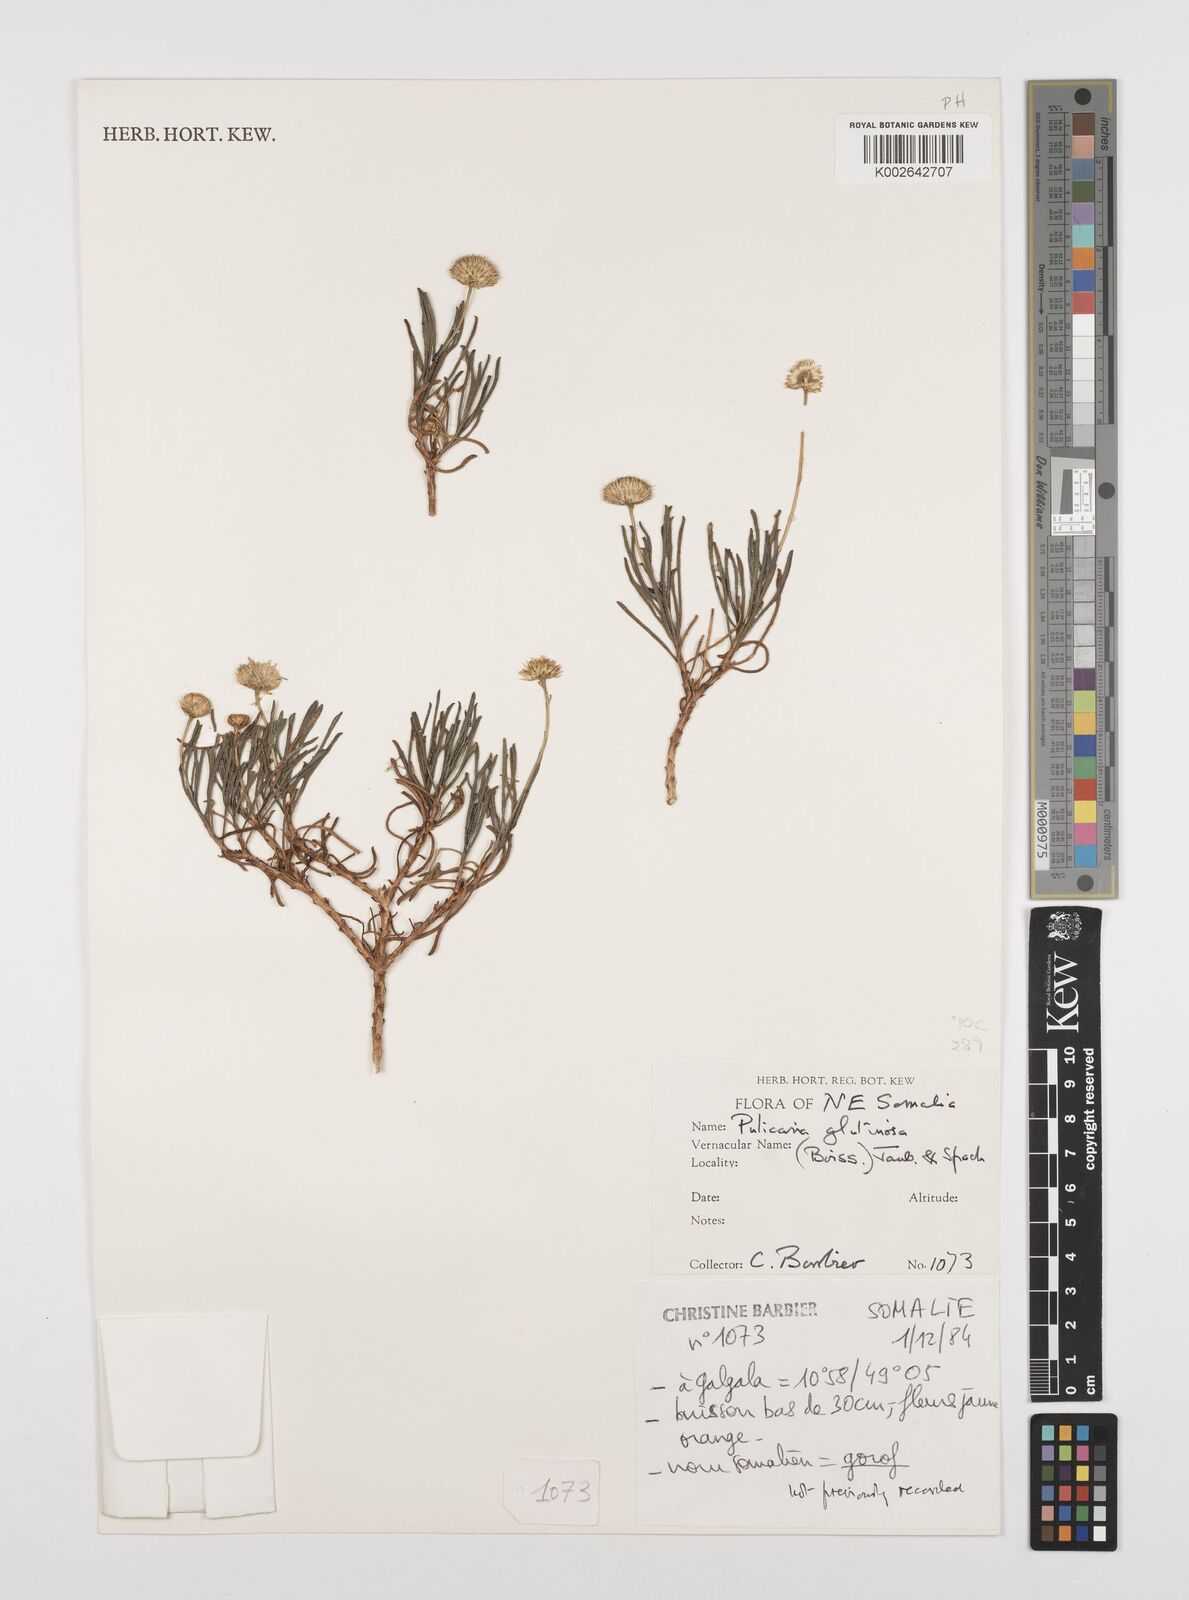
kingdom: Plantae
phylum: Tracheophyta
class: Magnoliopsida
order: Asterales
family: Asteraceae
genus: Pulicaria
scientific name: Pulicaria glutinosa
